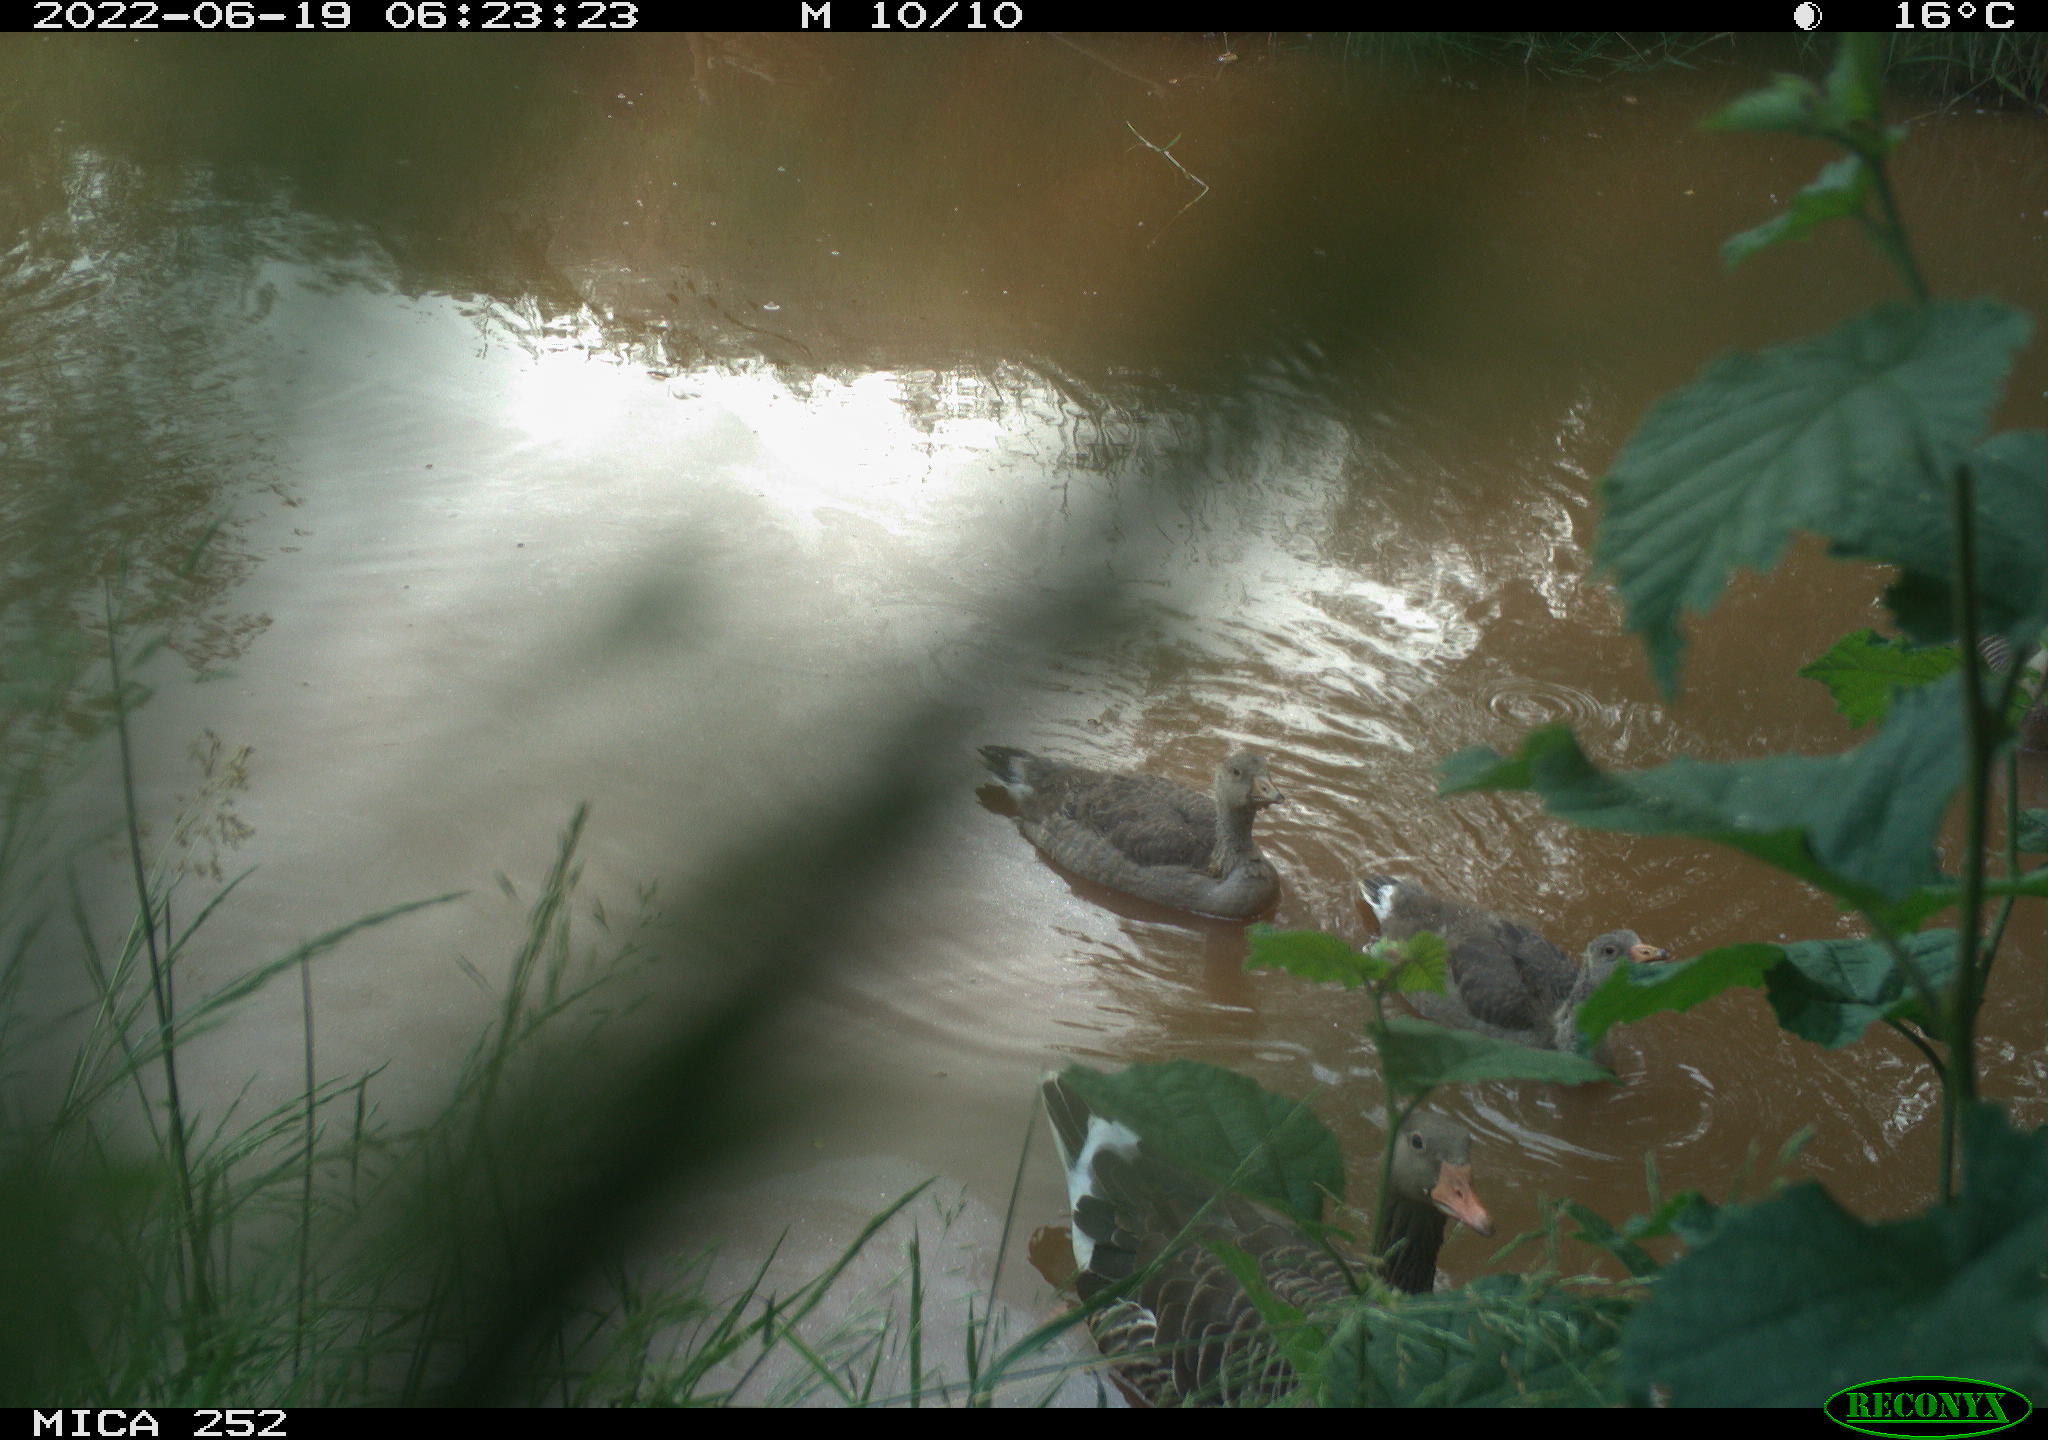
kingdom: Animalia
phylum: Chordata
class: Aves
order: Anseriformes
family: Anatidae
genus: Anser
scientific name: Anser anser
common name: Greylag goose
